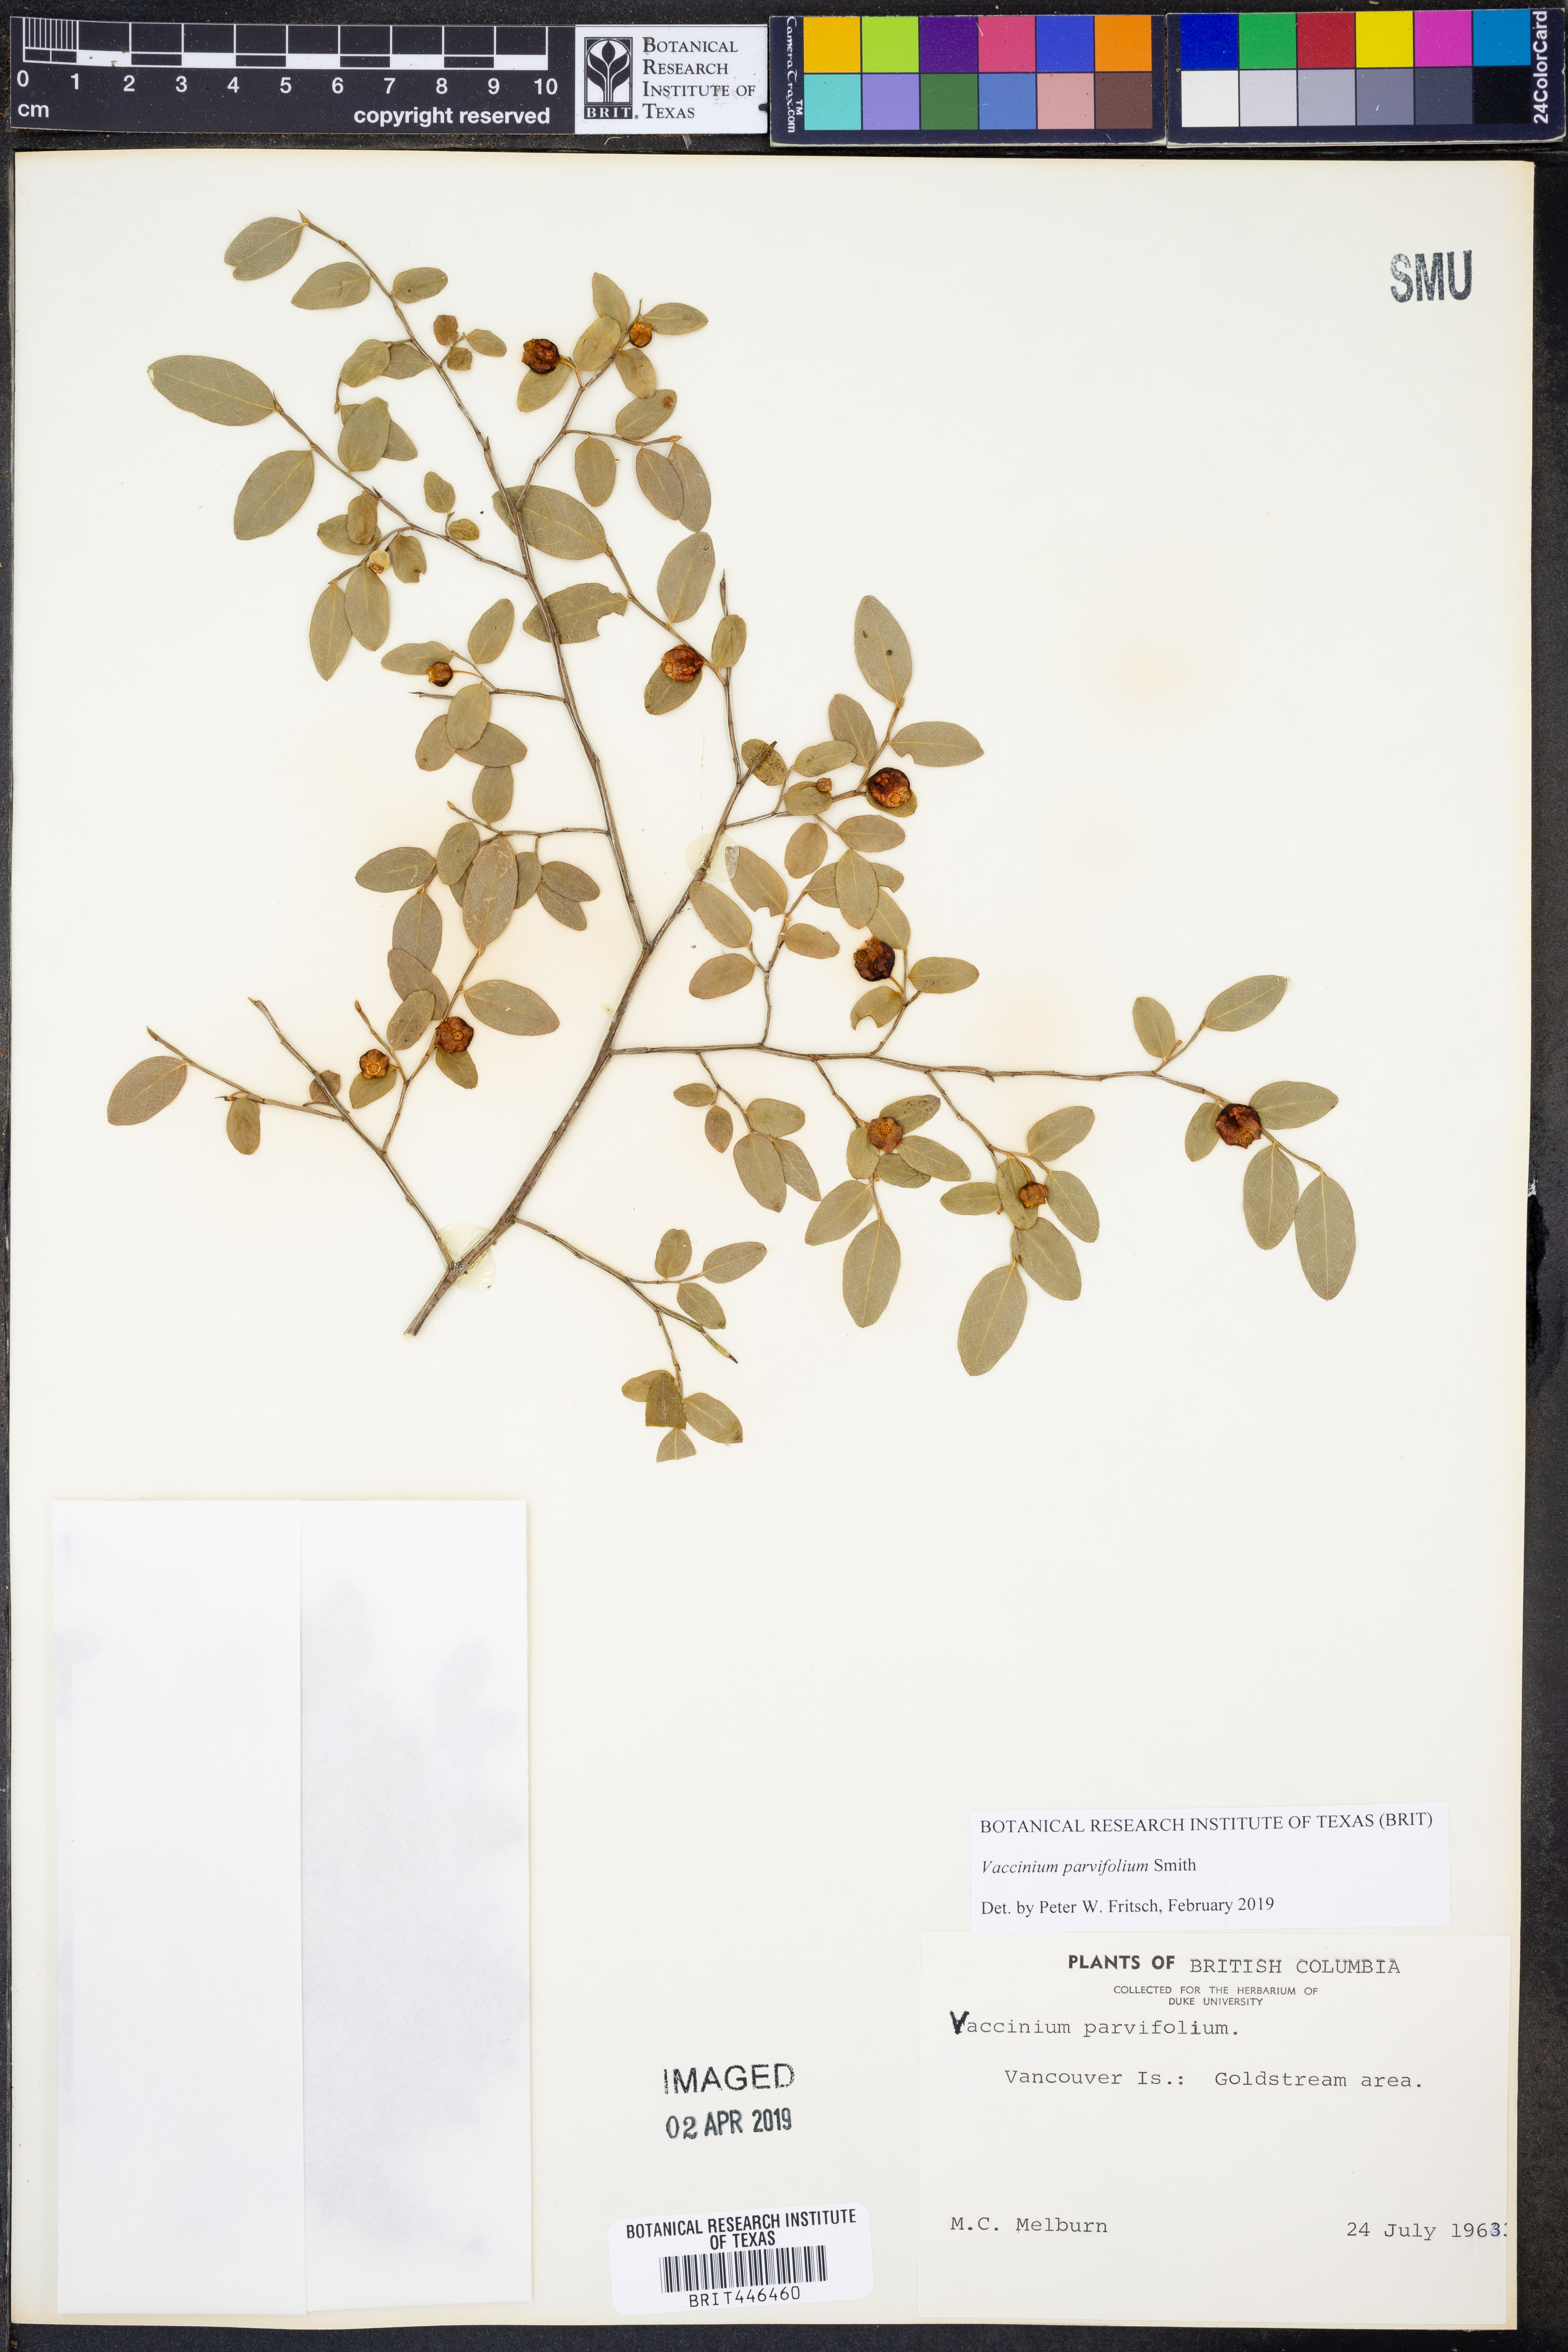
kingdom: Plantae
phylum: Tracheophyta
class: Magnoliopsida
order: Ericales
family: Ericaceae
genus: Vaccinium
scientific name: Vaccinium parvifolium
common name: Red-huckleberry
